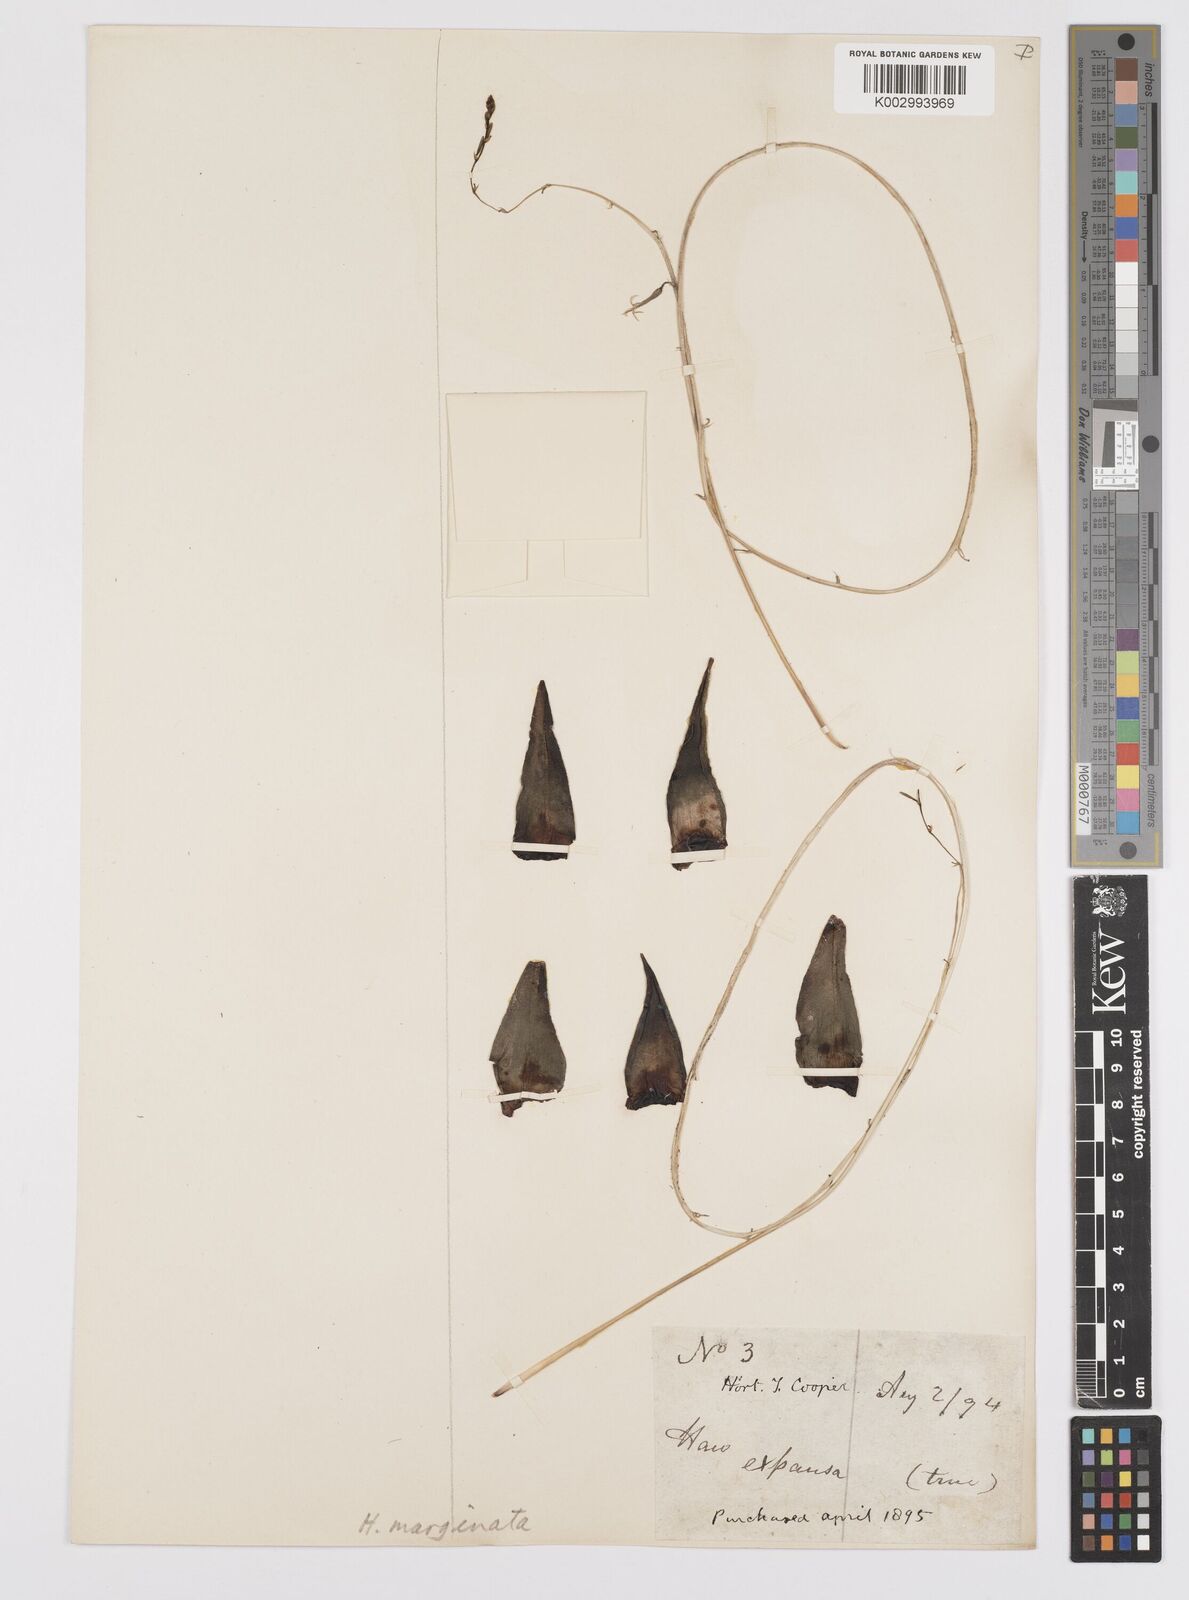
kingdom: Plantae
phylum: Tracheophyta
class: Liliopsida
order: Asparagales
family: Asphodelaceae
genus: Tulista
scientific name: Tulista marginata
